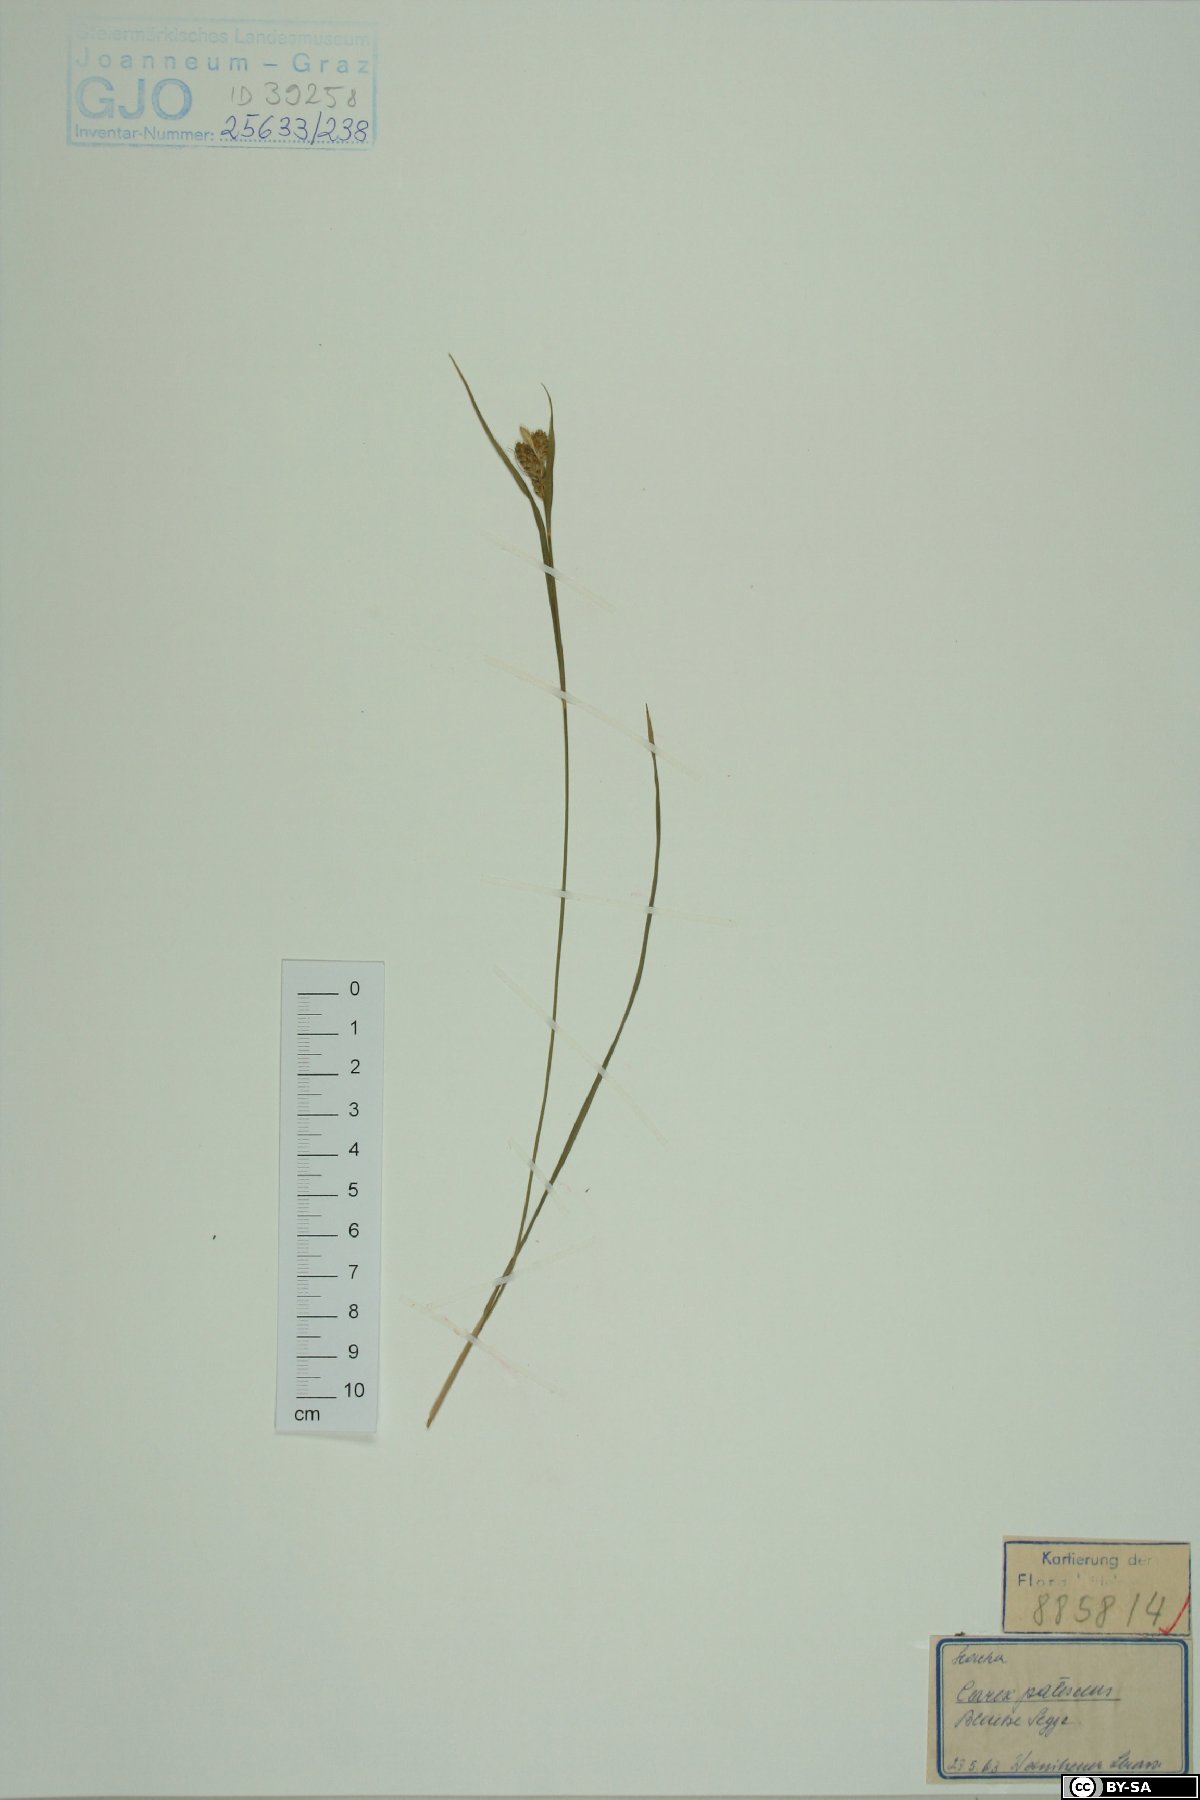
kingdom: Plantae
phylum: Tracheophyta
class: Liliopsida
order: Poales
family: Cyperaceae
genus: Carex
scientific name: Carex pallescens
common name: Pale sedge
